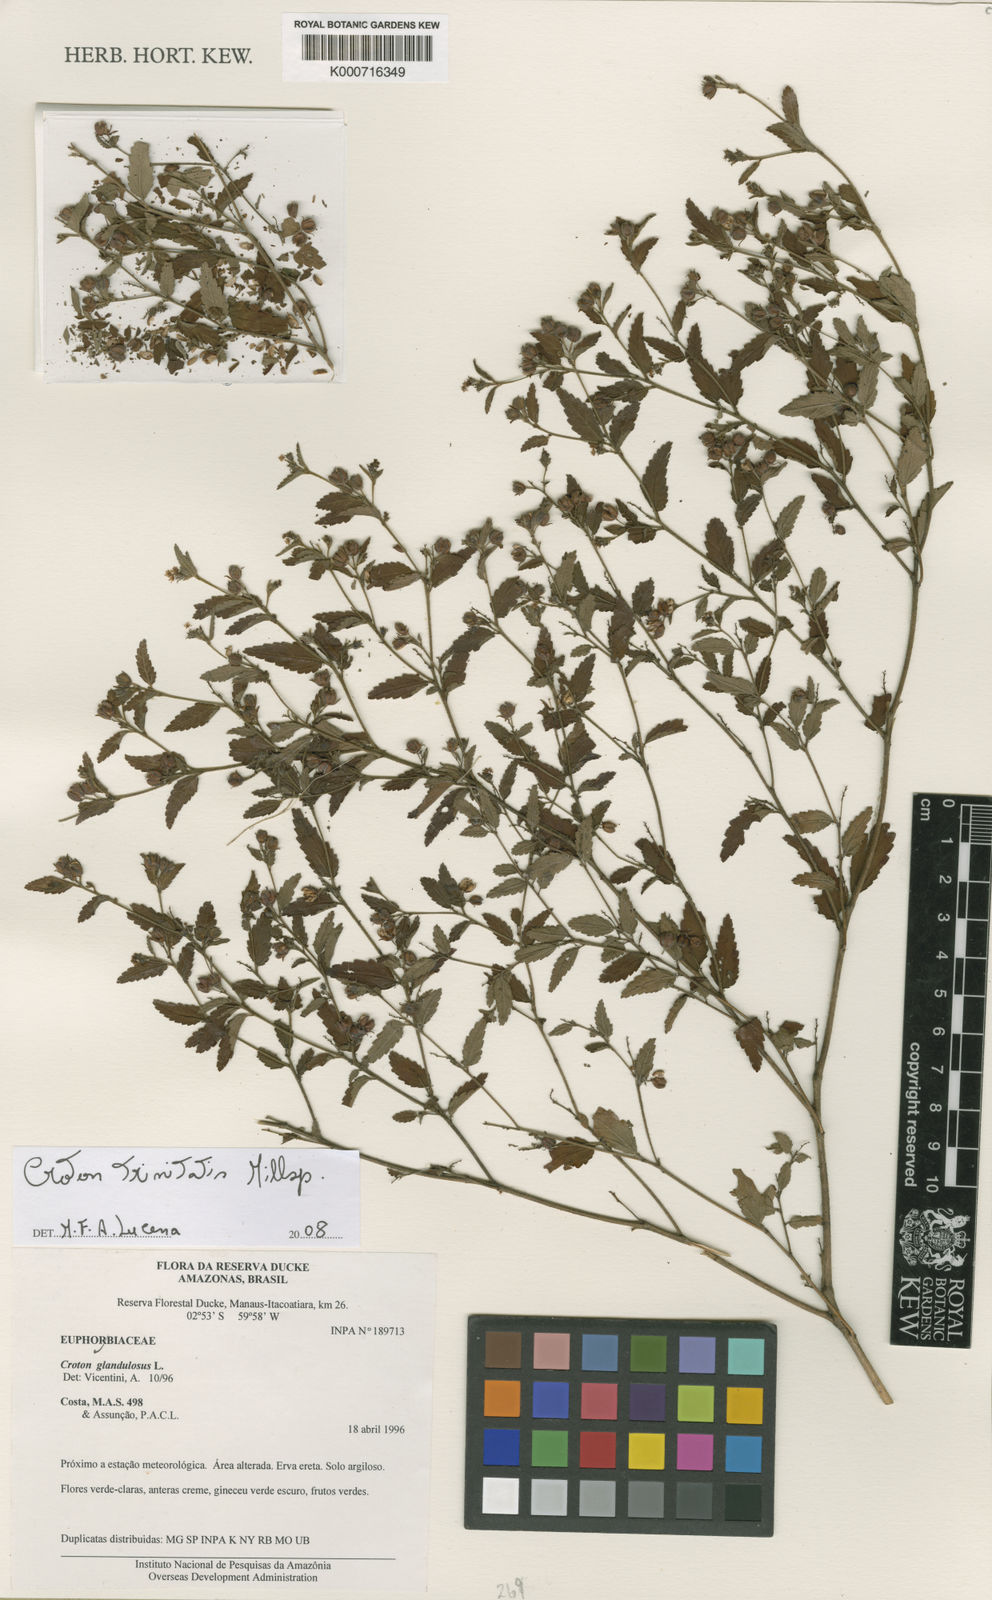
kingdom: Plantae
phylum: Tracheophyta
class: Magnoliopsida
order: Malpighiales
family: Euphorbiaceae
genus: Croton
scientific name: Croton trinitatis
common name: Roadside croton
